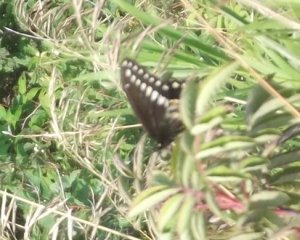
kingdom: Animalia
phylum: Arthropoda
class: Insecta
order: Lepidoptera
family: Papilionidae
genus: Papilio
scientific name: Papilio polyxenes
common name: Black Swallowtail
